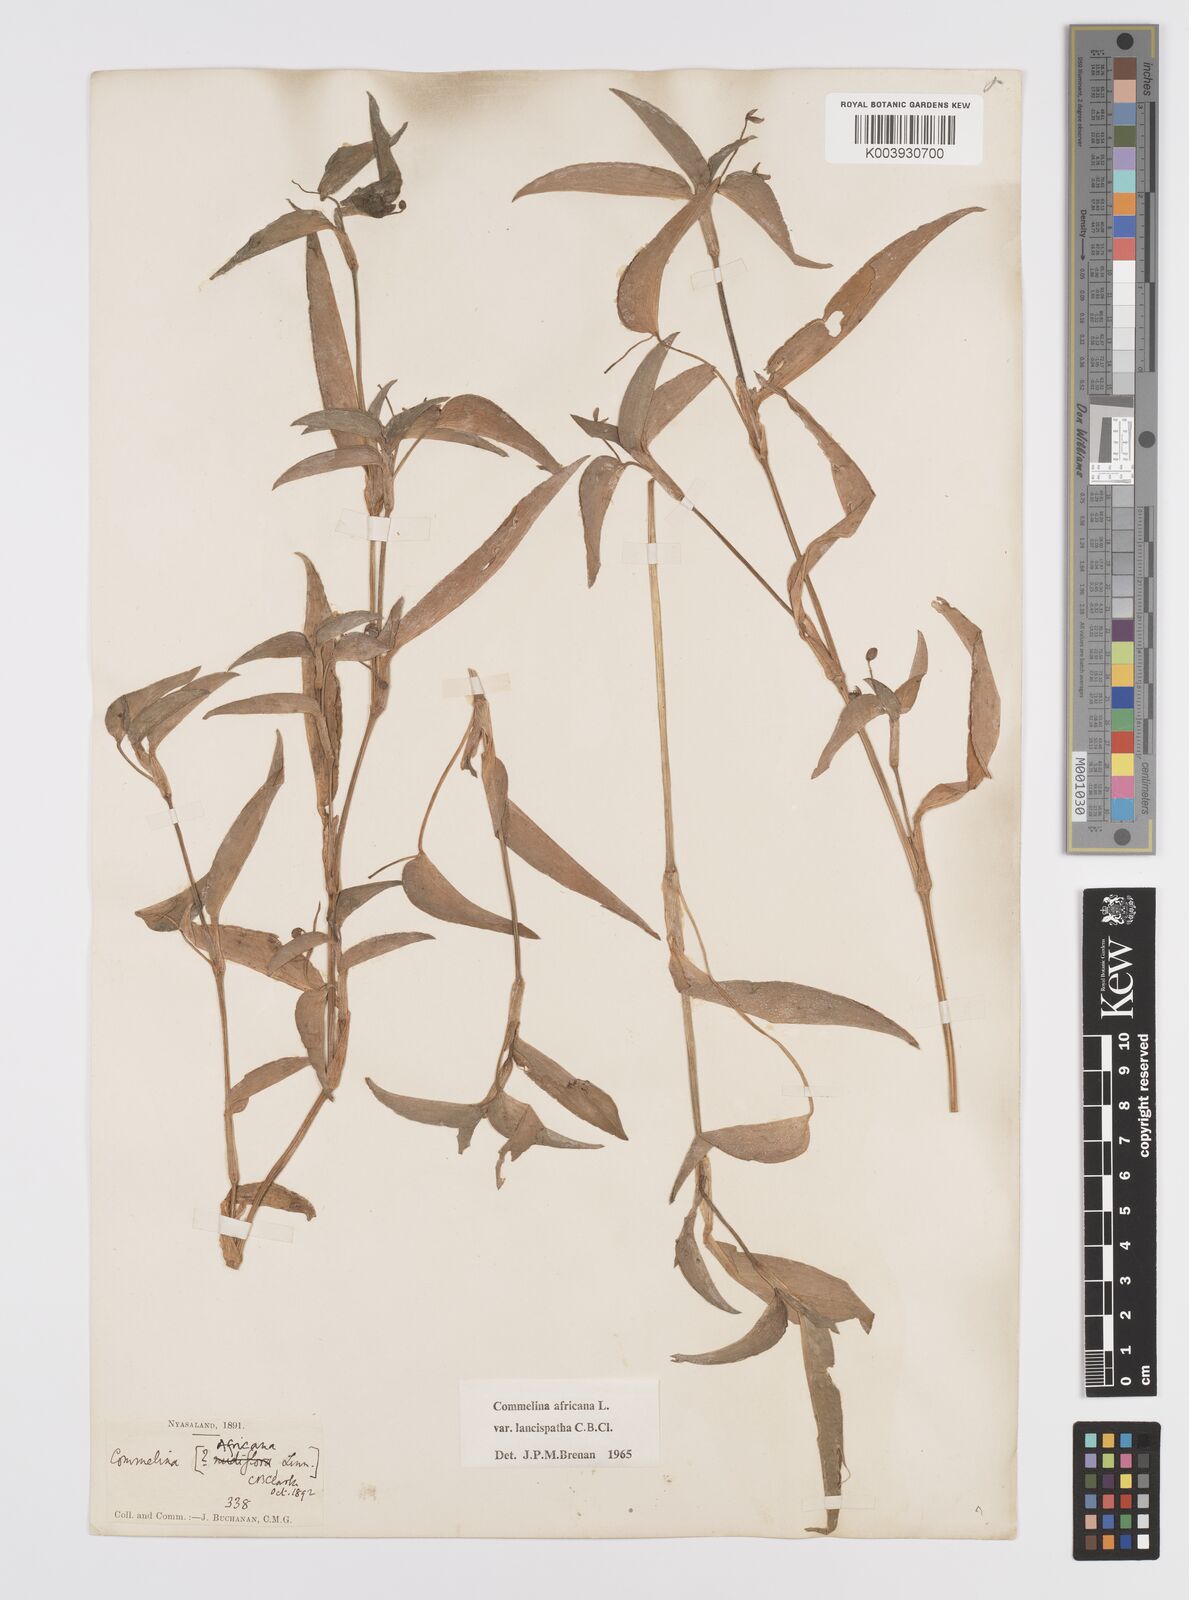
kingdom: Plantae
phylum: Tracheophyta
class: Liliopsida
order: Commelinales
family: Commelinaceae
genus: Commelina
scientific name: Commelina africana
